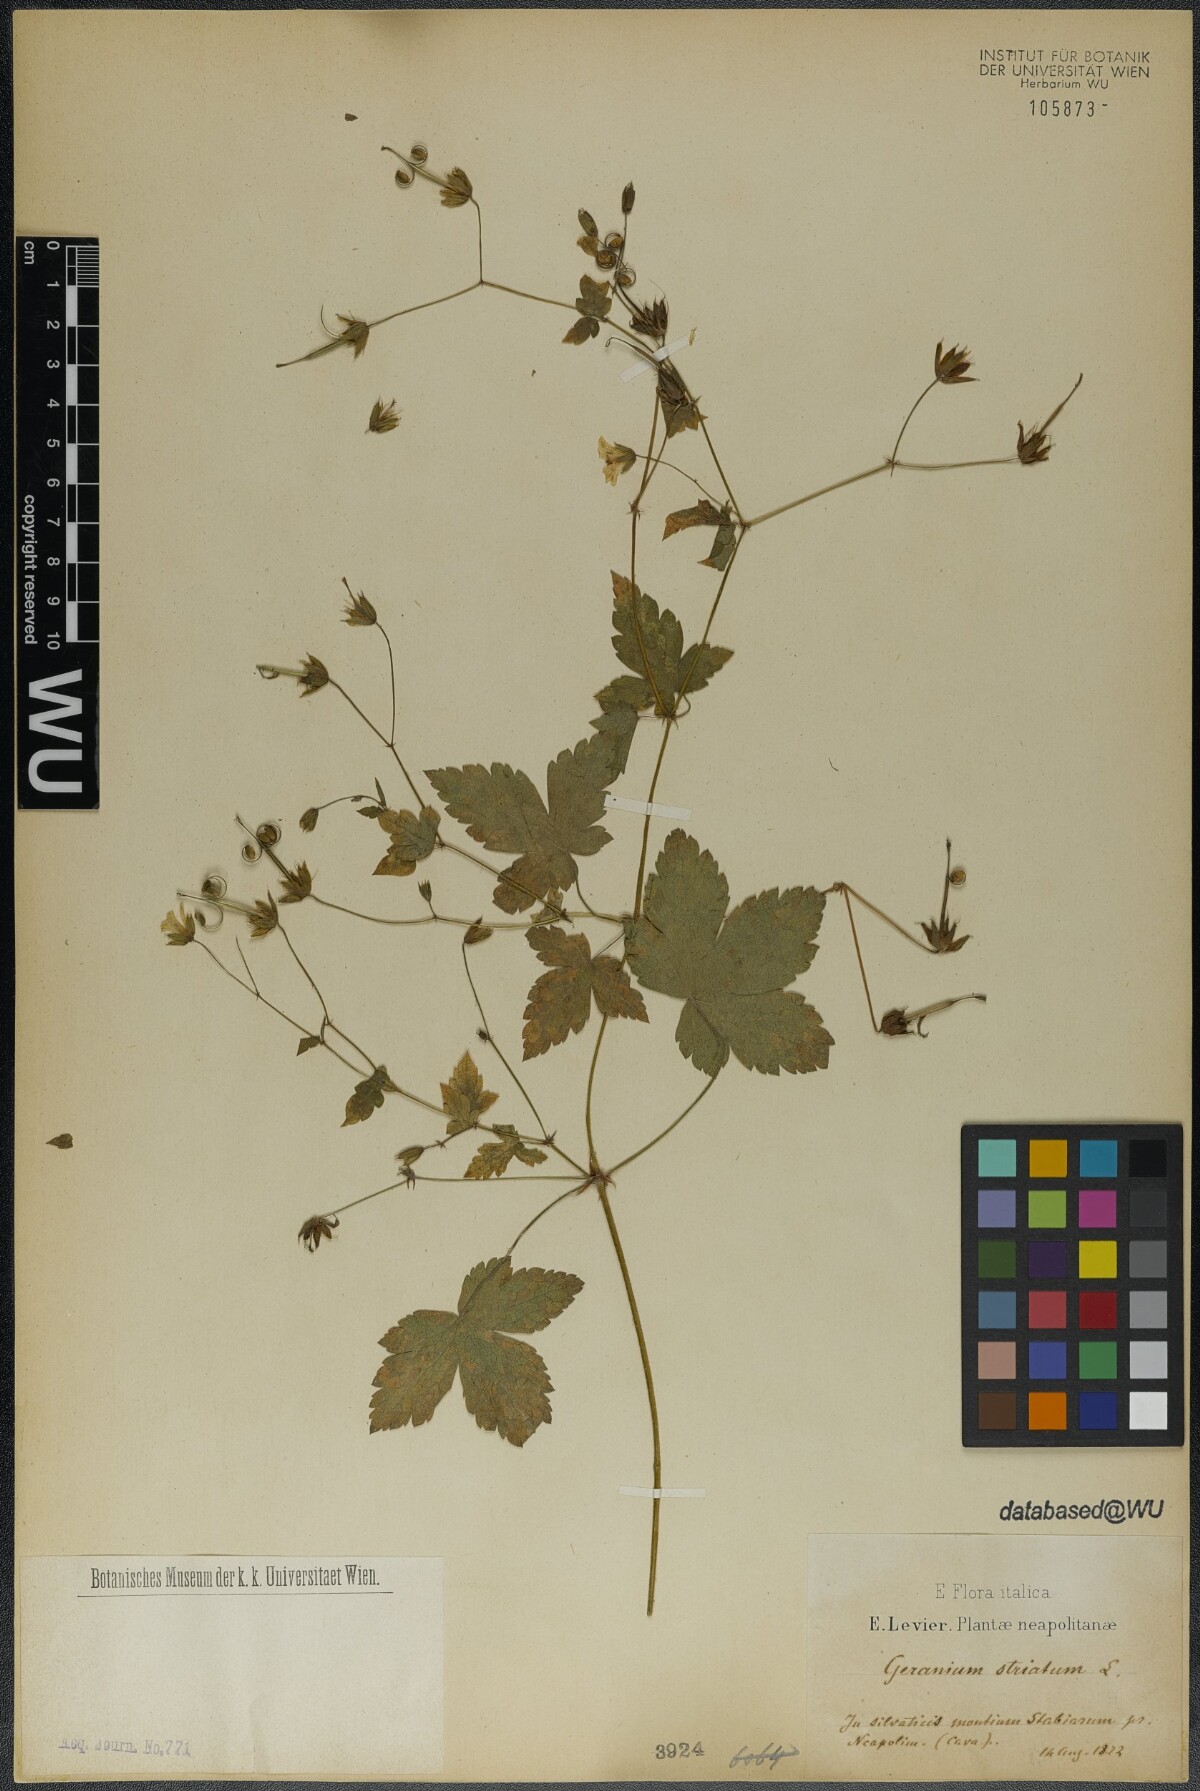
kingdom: Plantae
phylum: Tracheophyta
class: Magnoliopsida
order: Geraniales
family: Geraniaceae
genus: Geranium
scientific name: Geranium versicolor
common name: Pencilled crane's-bill
